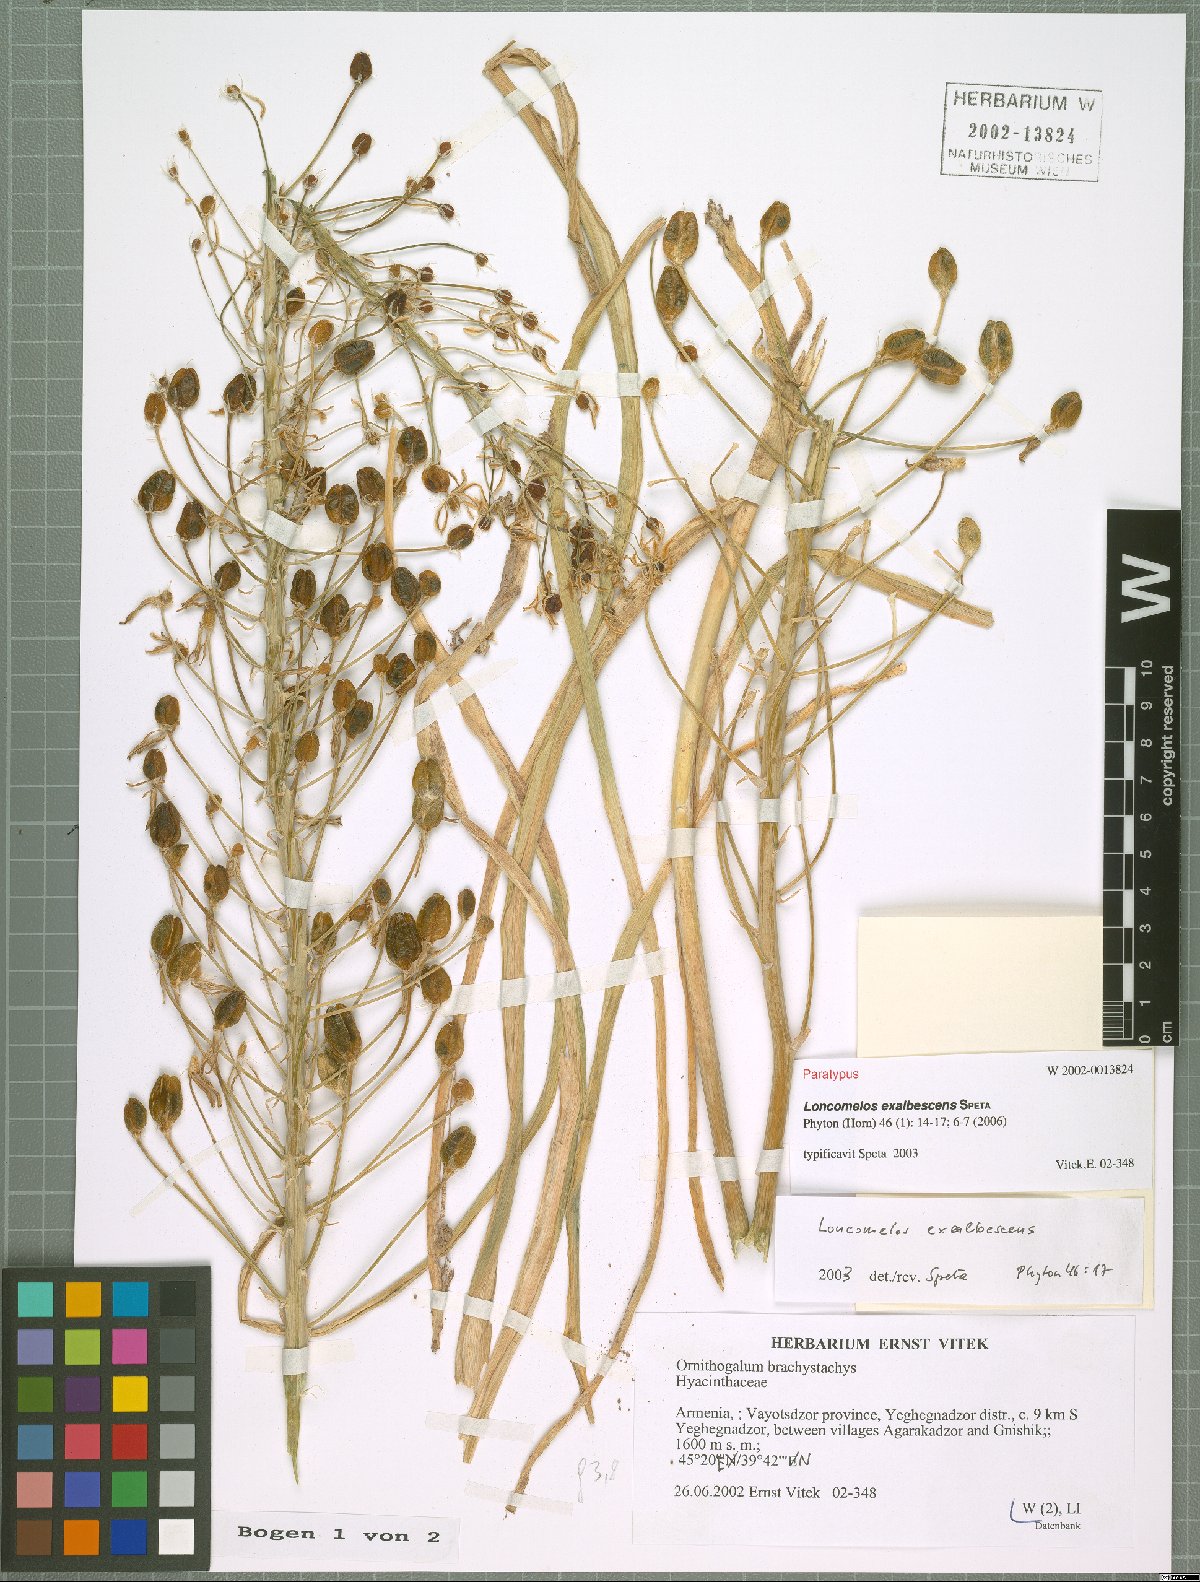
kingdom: Plantae
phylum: Tracheophyta
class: Liliopsida
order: Asparagales
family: Asparagaceae
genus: Ornithogalum
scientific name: Ornithogalum Loncomelos exalbescens
